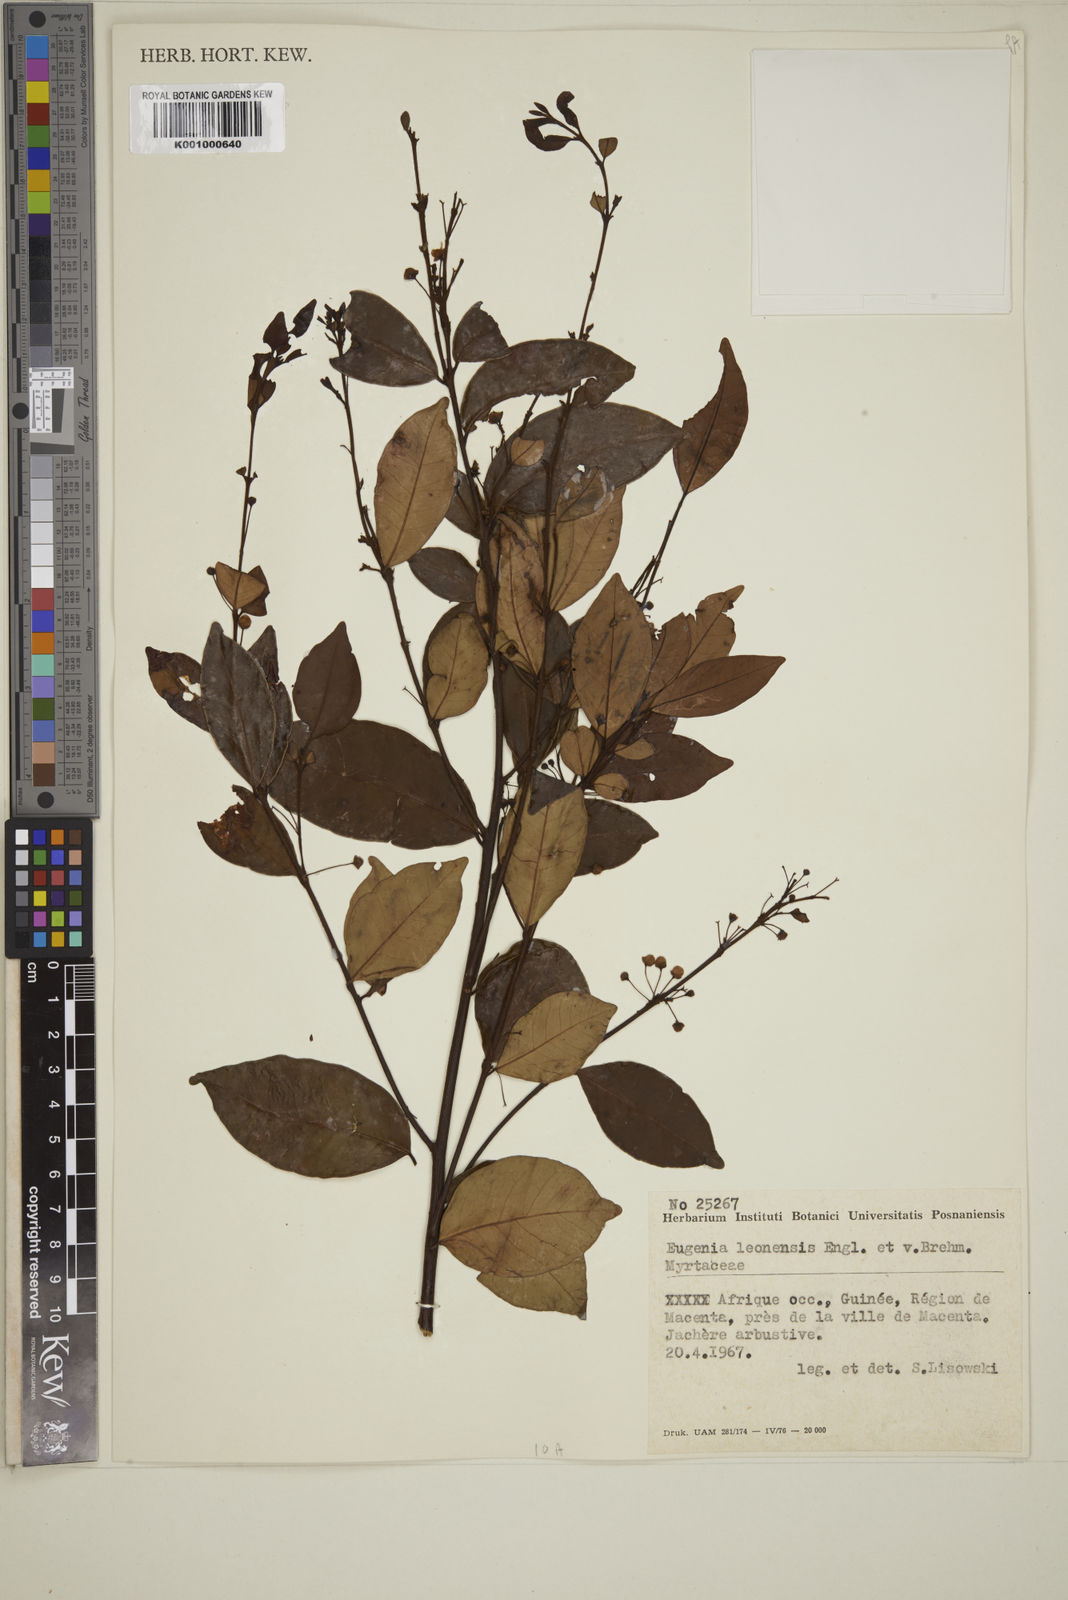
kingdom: Plantae
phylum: Tracheophyta
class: Magnoliopsida
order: Myrtales
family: Myrtaceae
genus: Eugenia
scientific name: Eugenia leonensis
